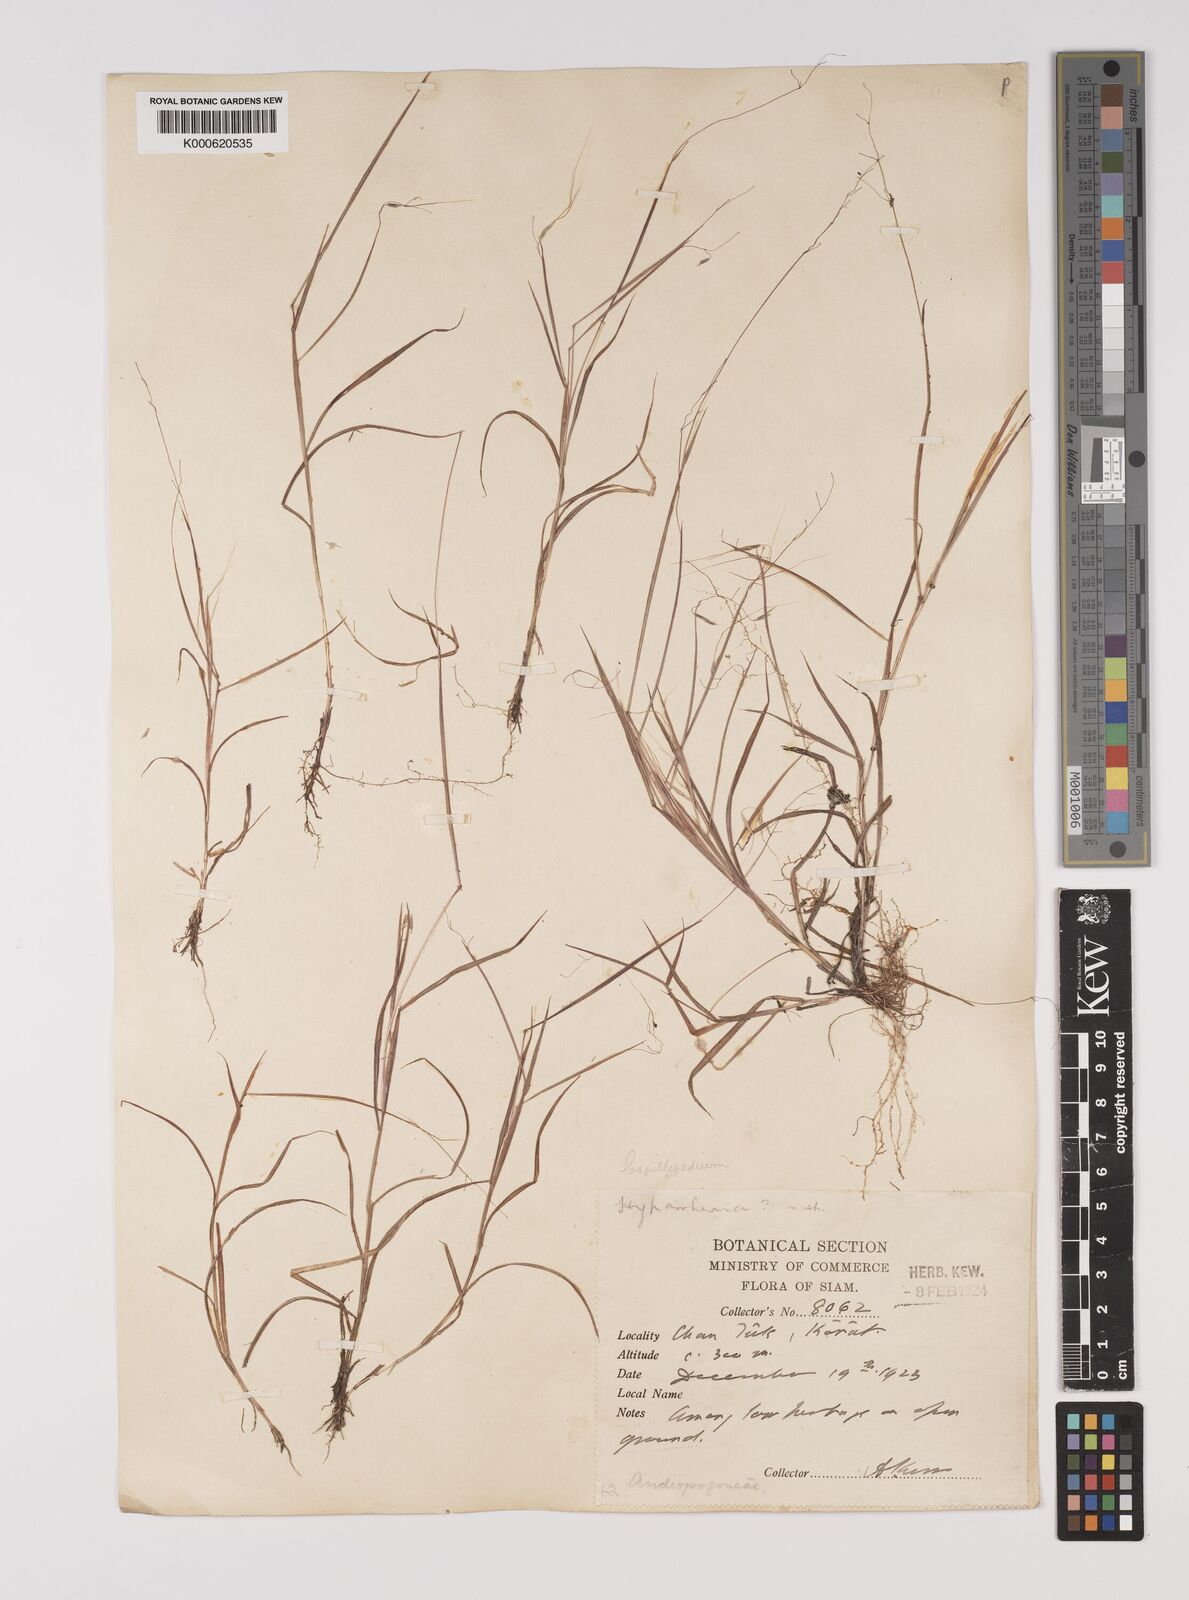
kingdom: Plantae
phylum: Tracheophyta
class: Liliopsida
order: Poales
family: Poaceae
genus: Capillipedium
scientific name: Capillipedium
